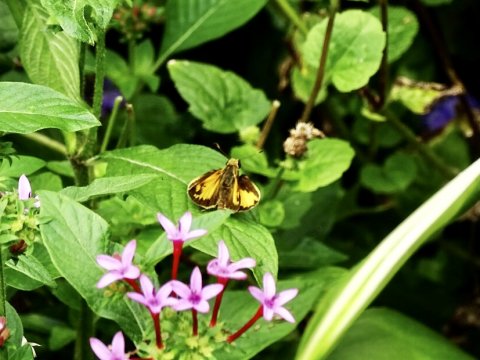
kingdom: Animalia
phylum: Arthropoda
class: Insecta
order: Lepidoptera
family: Hesperiidae
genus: Lon
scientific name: Lon zabulon
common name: Zabulon Skipper
